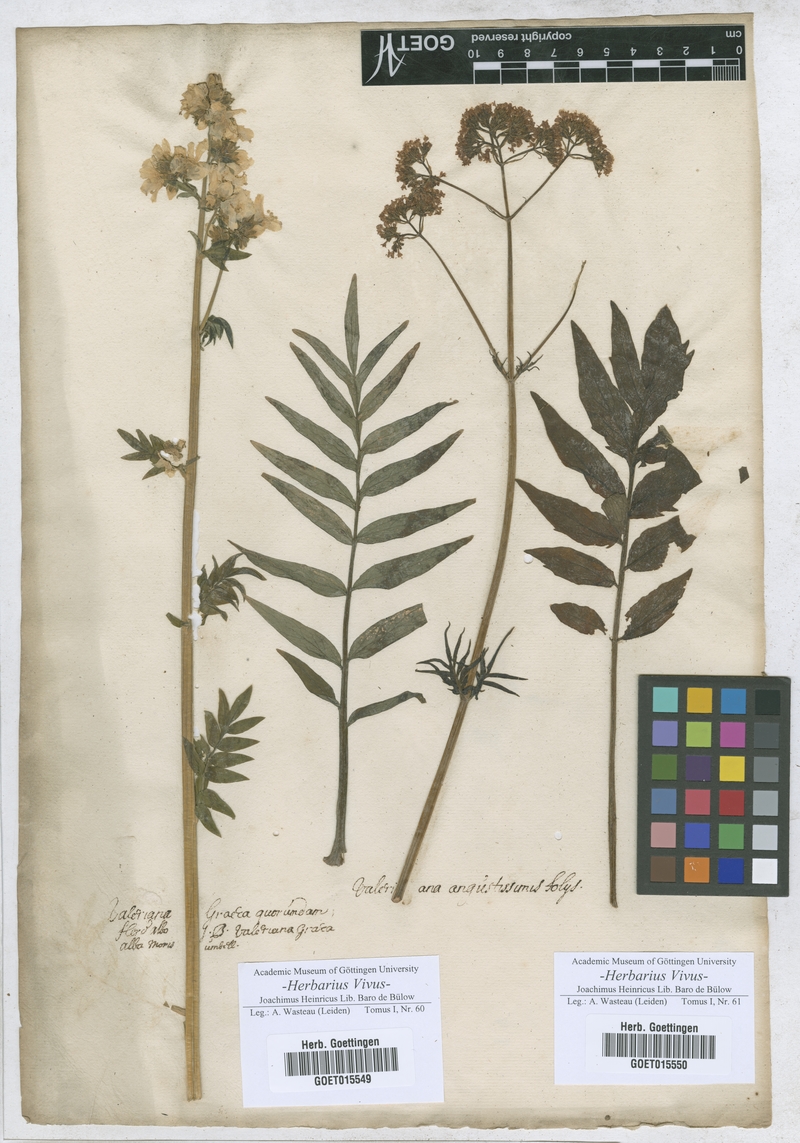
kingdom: Plantae
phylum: Tracheophyta
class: Magnoliopsida
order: Dipsacales
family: Caprifoliaceae
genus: Valeriana
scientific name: Valeriana
